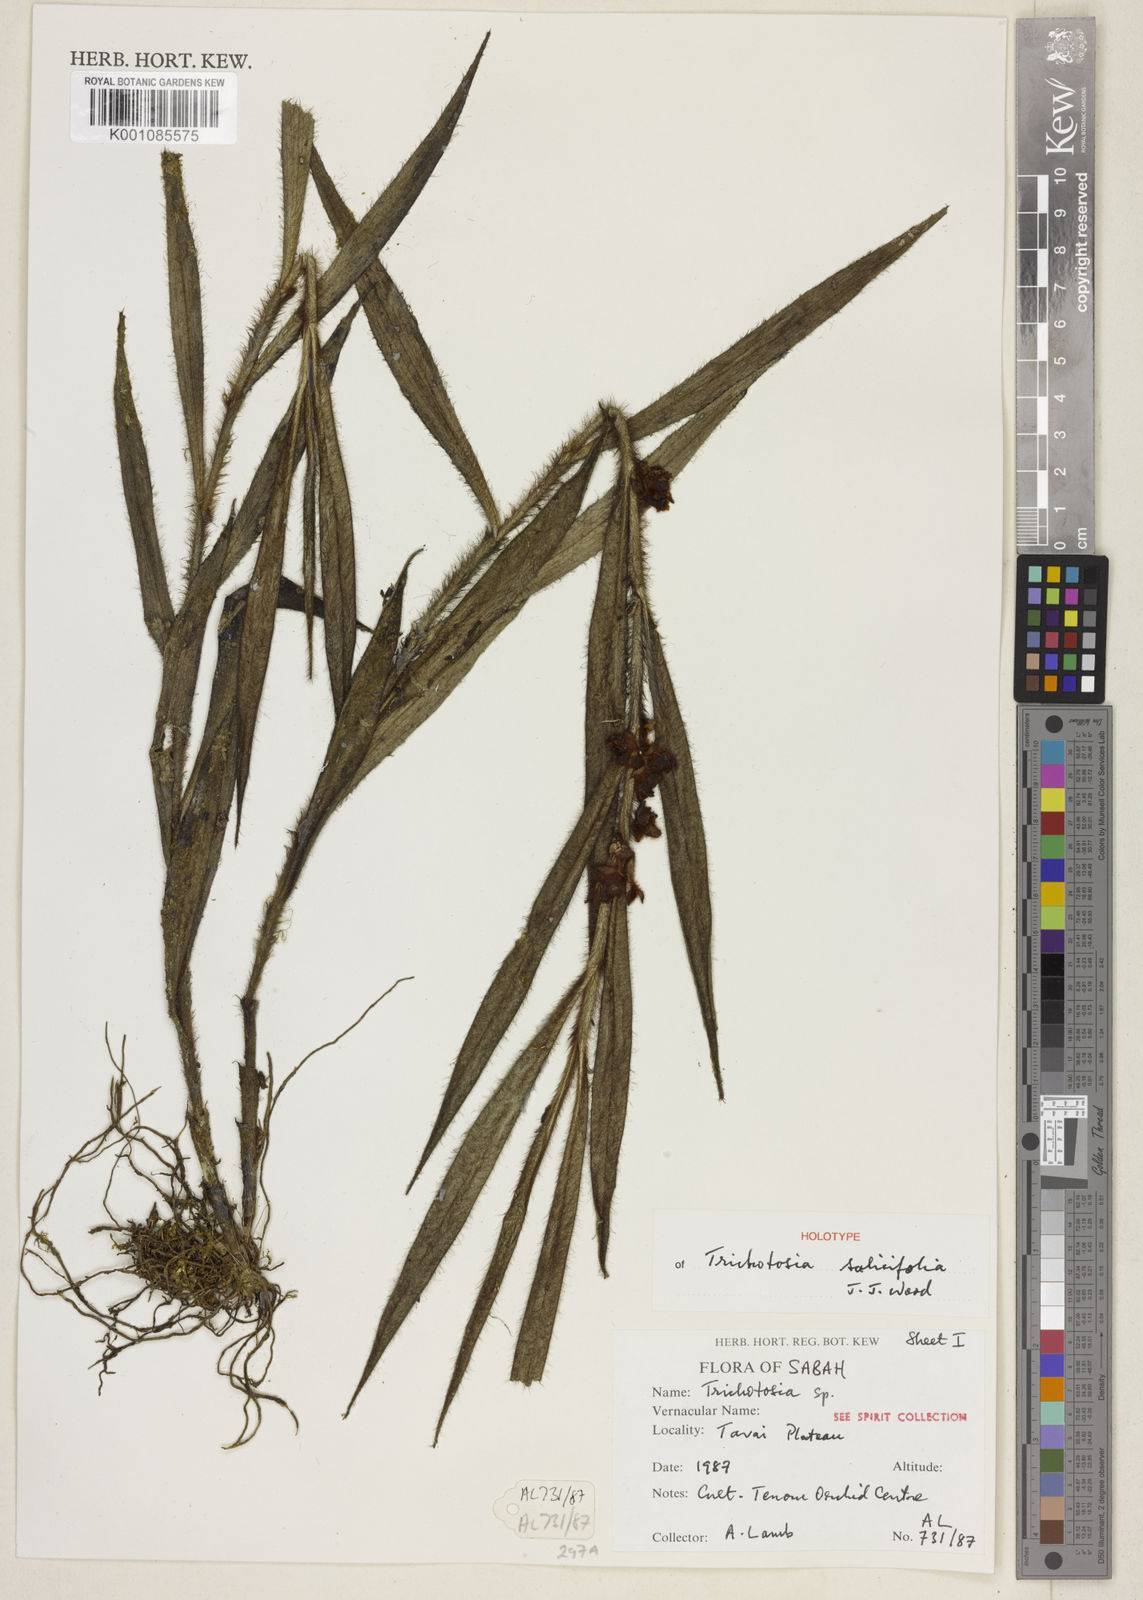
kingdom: Plantae
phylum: Tracheophyta
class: Liliopsida
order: Asparagales
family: Orchidaceae
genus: Trichotosia
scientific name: Trichotosia salicifolia
